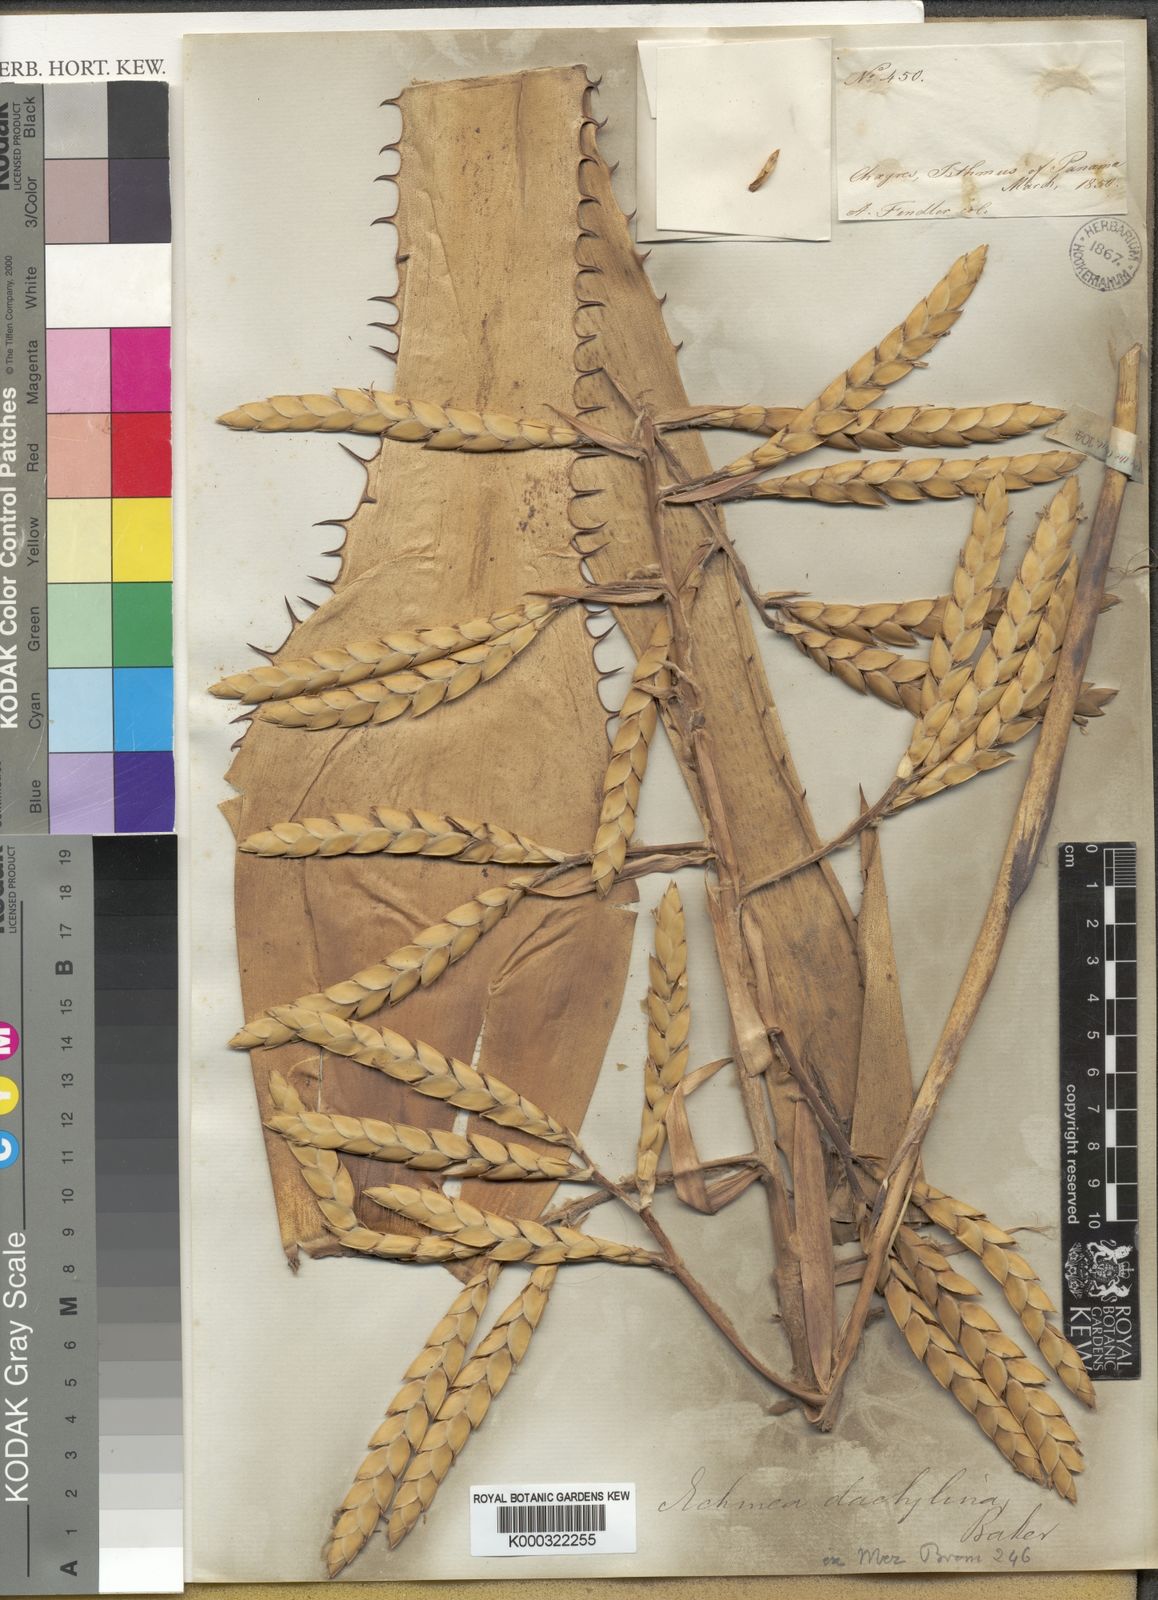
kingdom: Plantae
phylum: Tracheophyta
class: Liliopsida
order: Poales
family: Bromeliaceae
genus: Aechmea
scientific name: Aechmea dactylina
